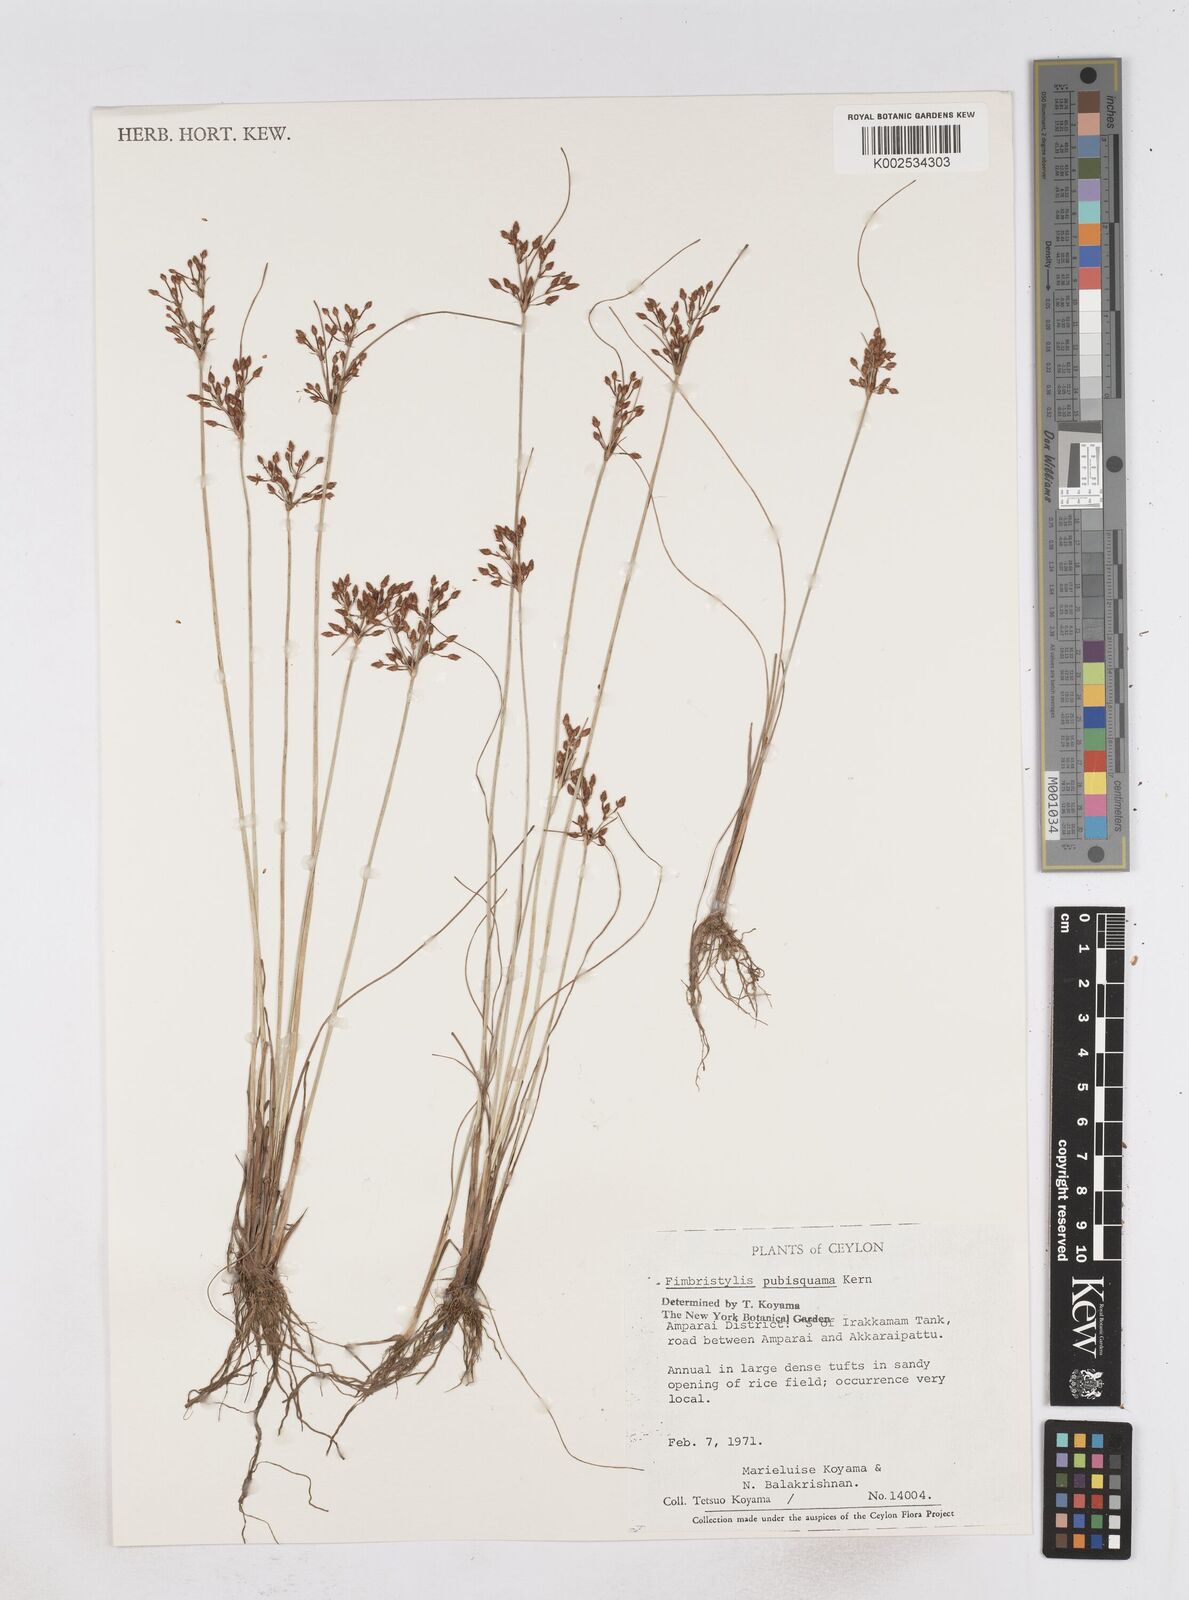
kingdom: Plantae
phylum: Tracheophyta
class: Liliopsida
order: Poales
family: Cyperaceae
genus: Fimbristylis
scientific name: Fimbristylis pubisquama
